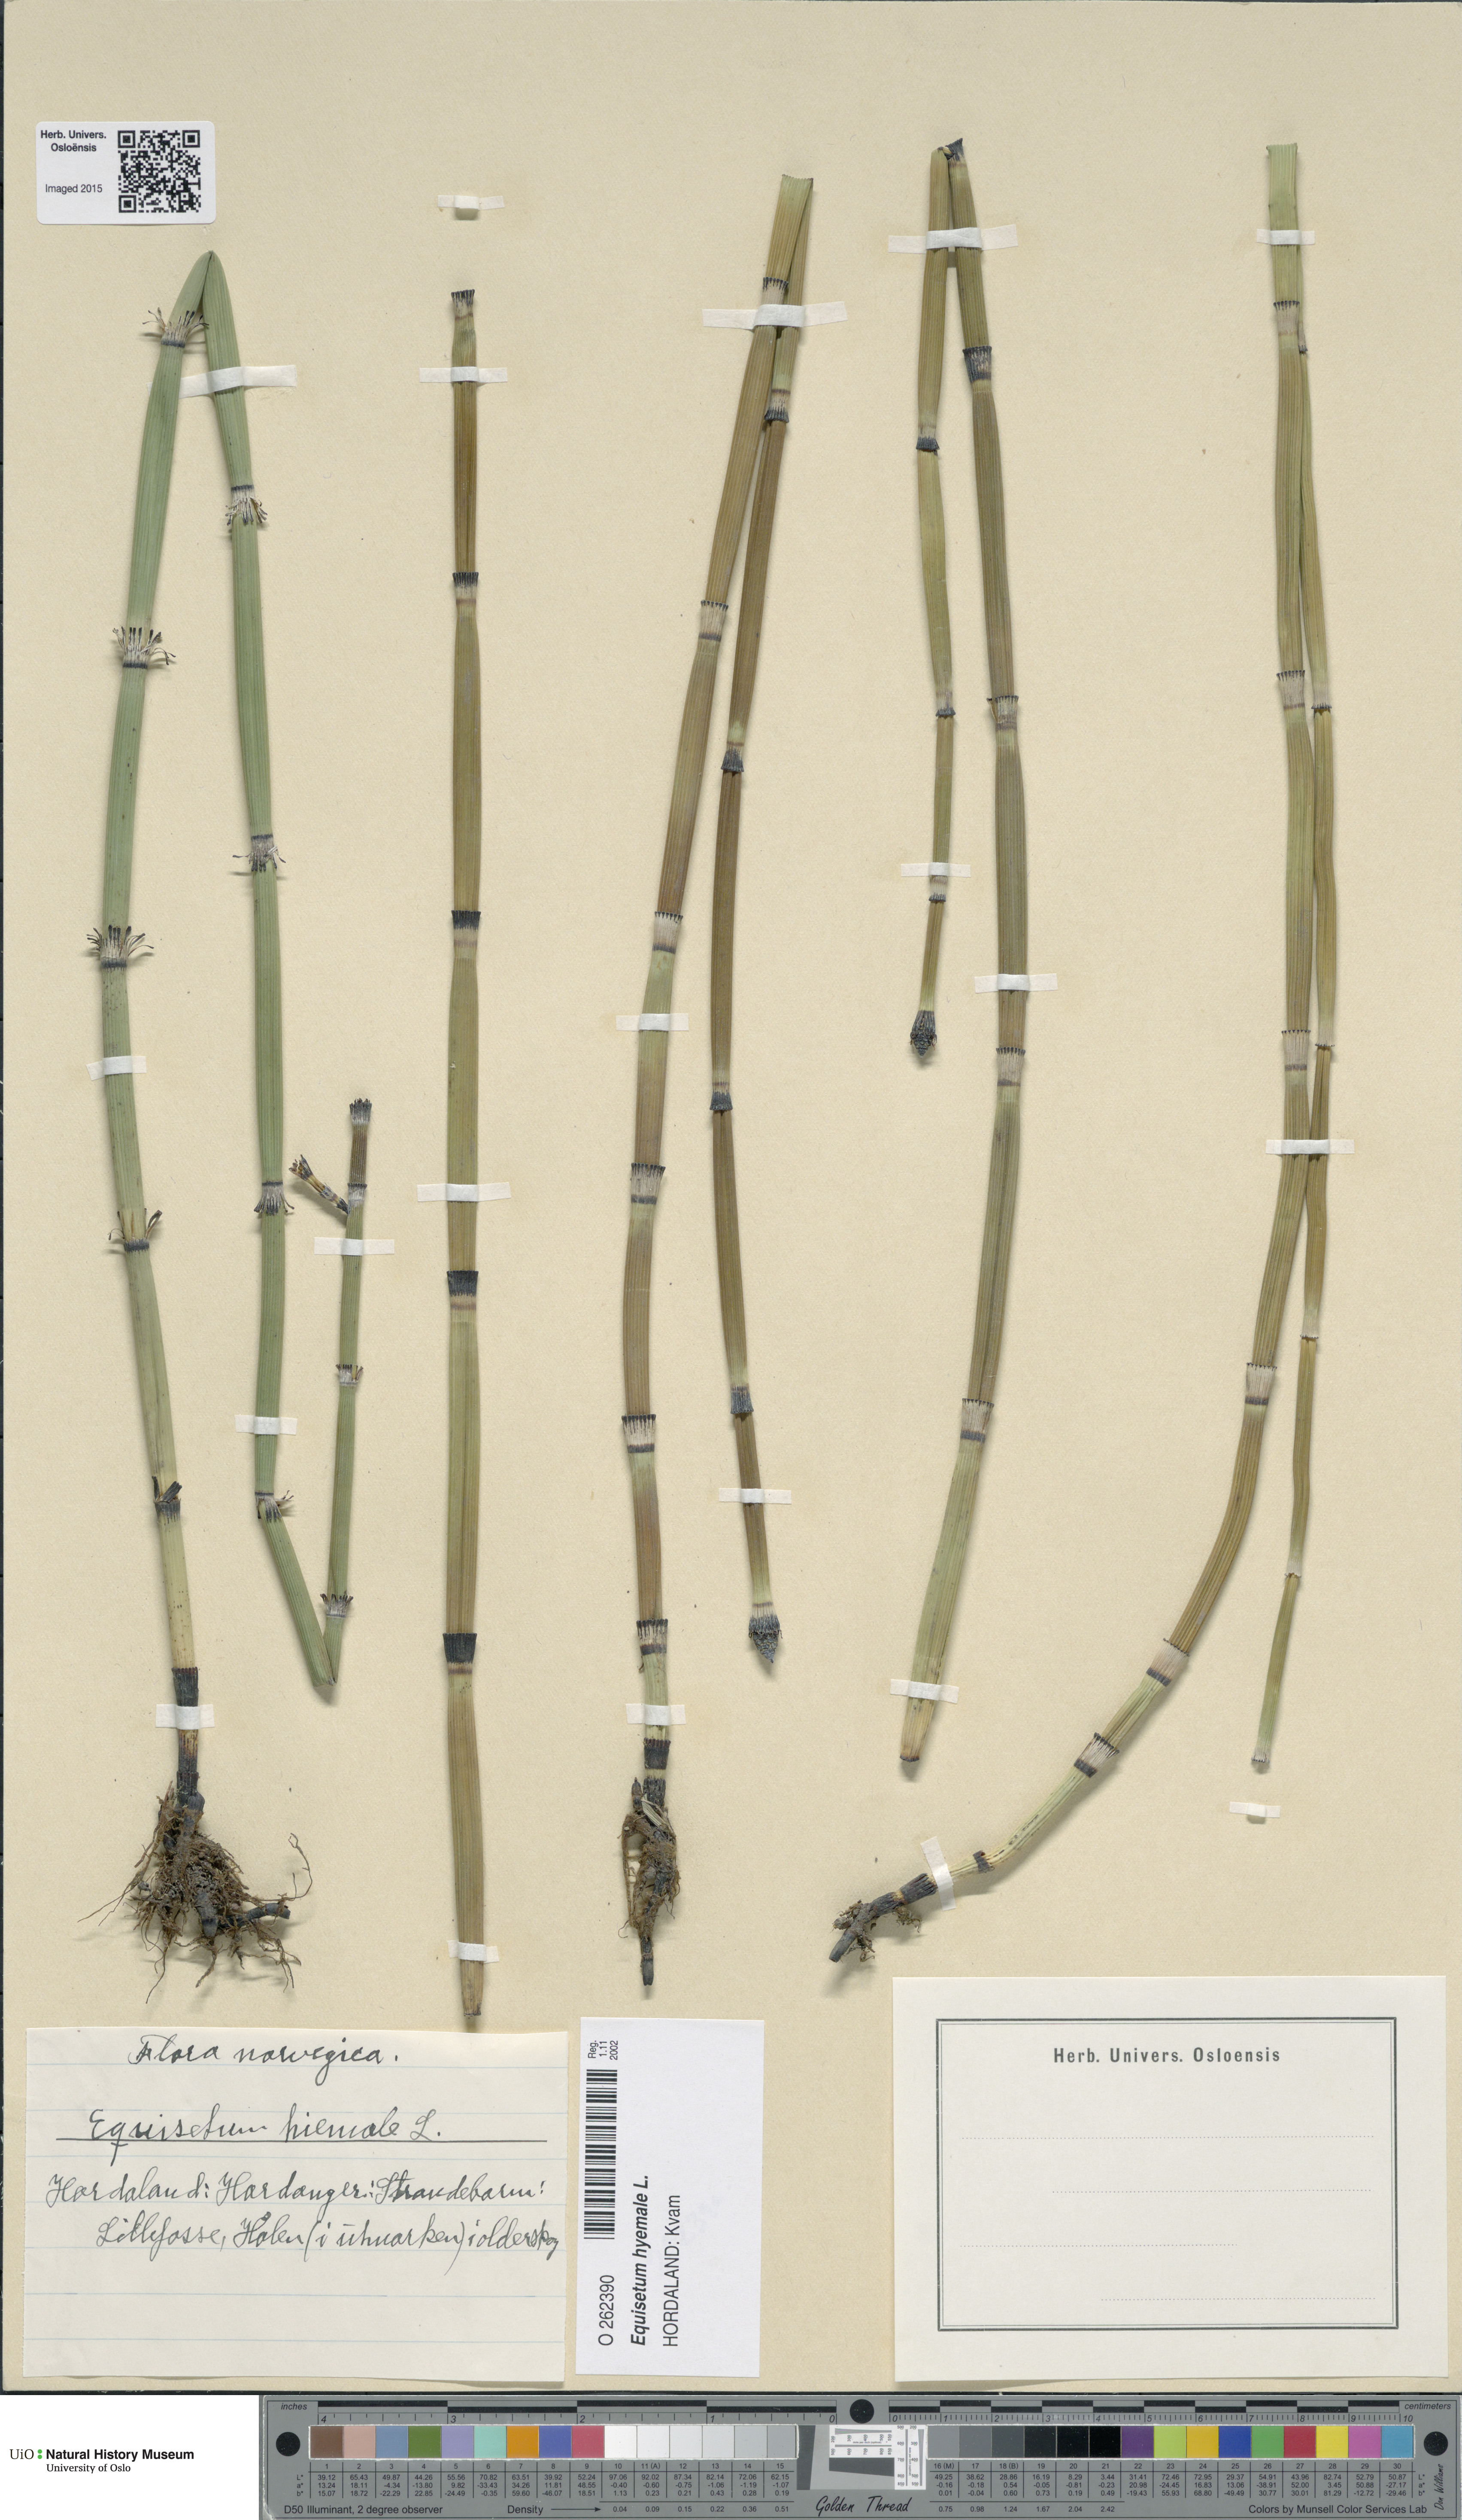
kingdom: Plantae
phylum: Tracheophyta
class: Polypodiopsida
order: Equisetales
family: Equisetaceae
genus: Equisetum
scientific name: Equisetum hyemale
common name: Rough horsetail
